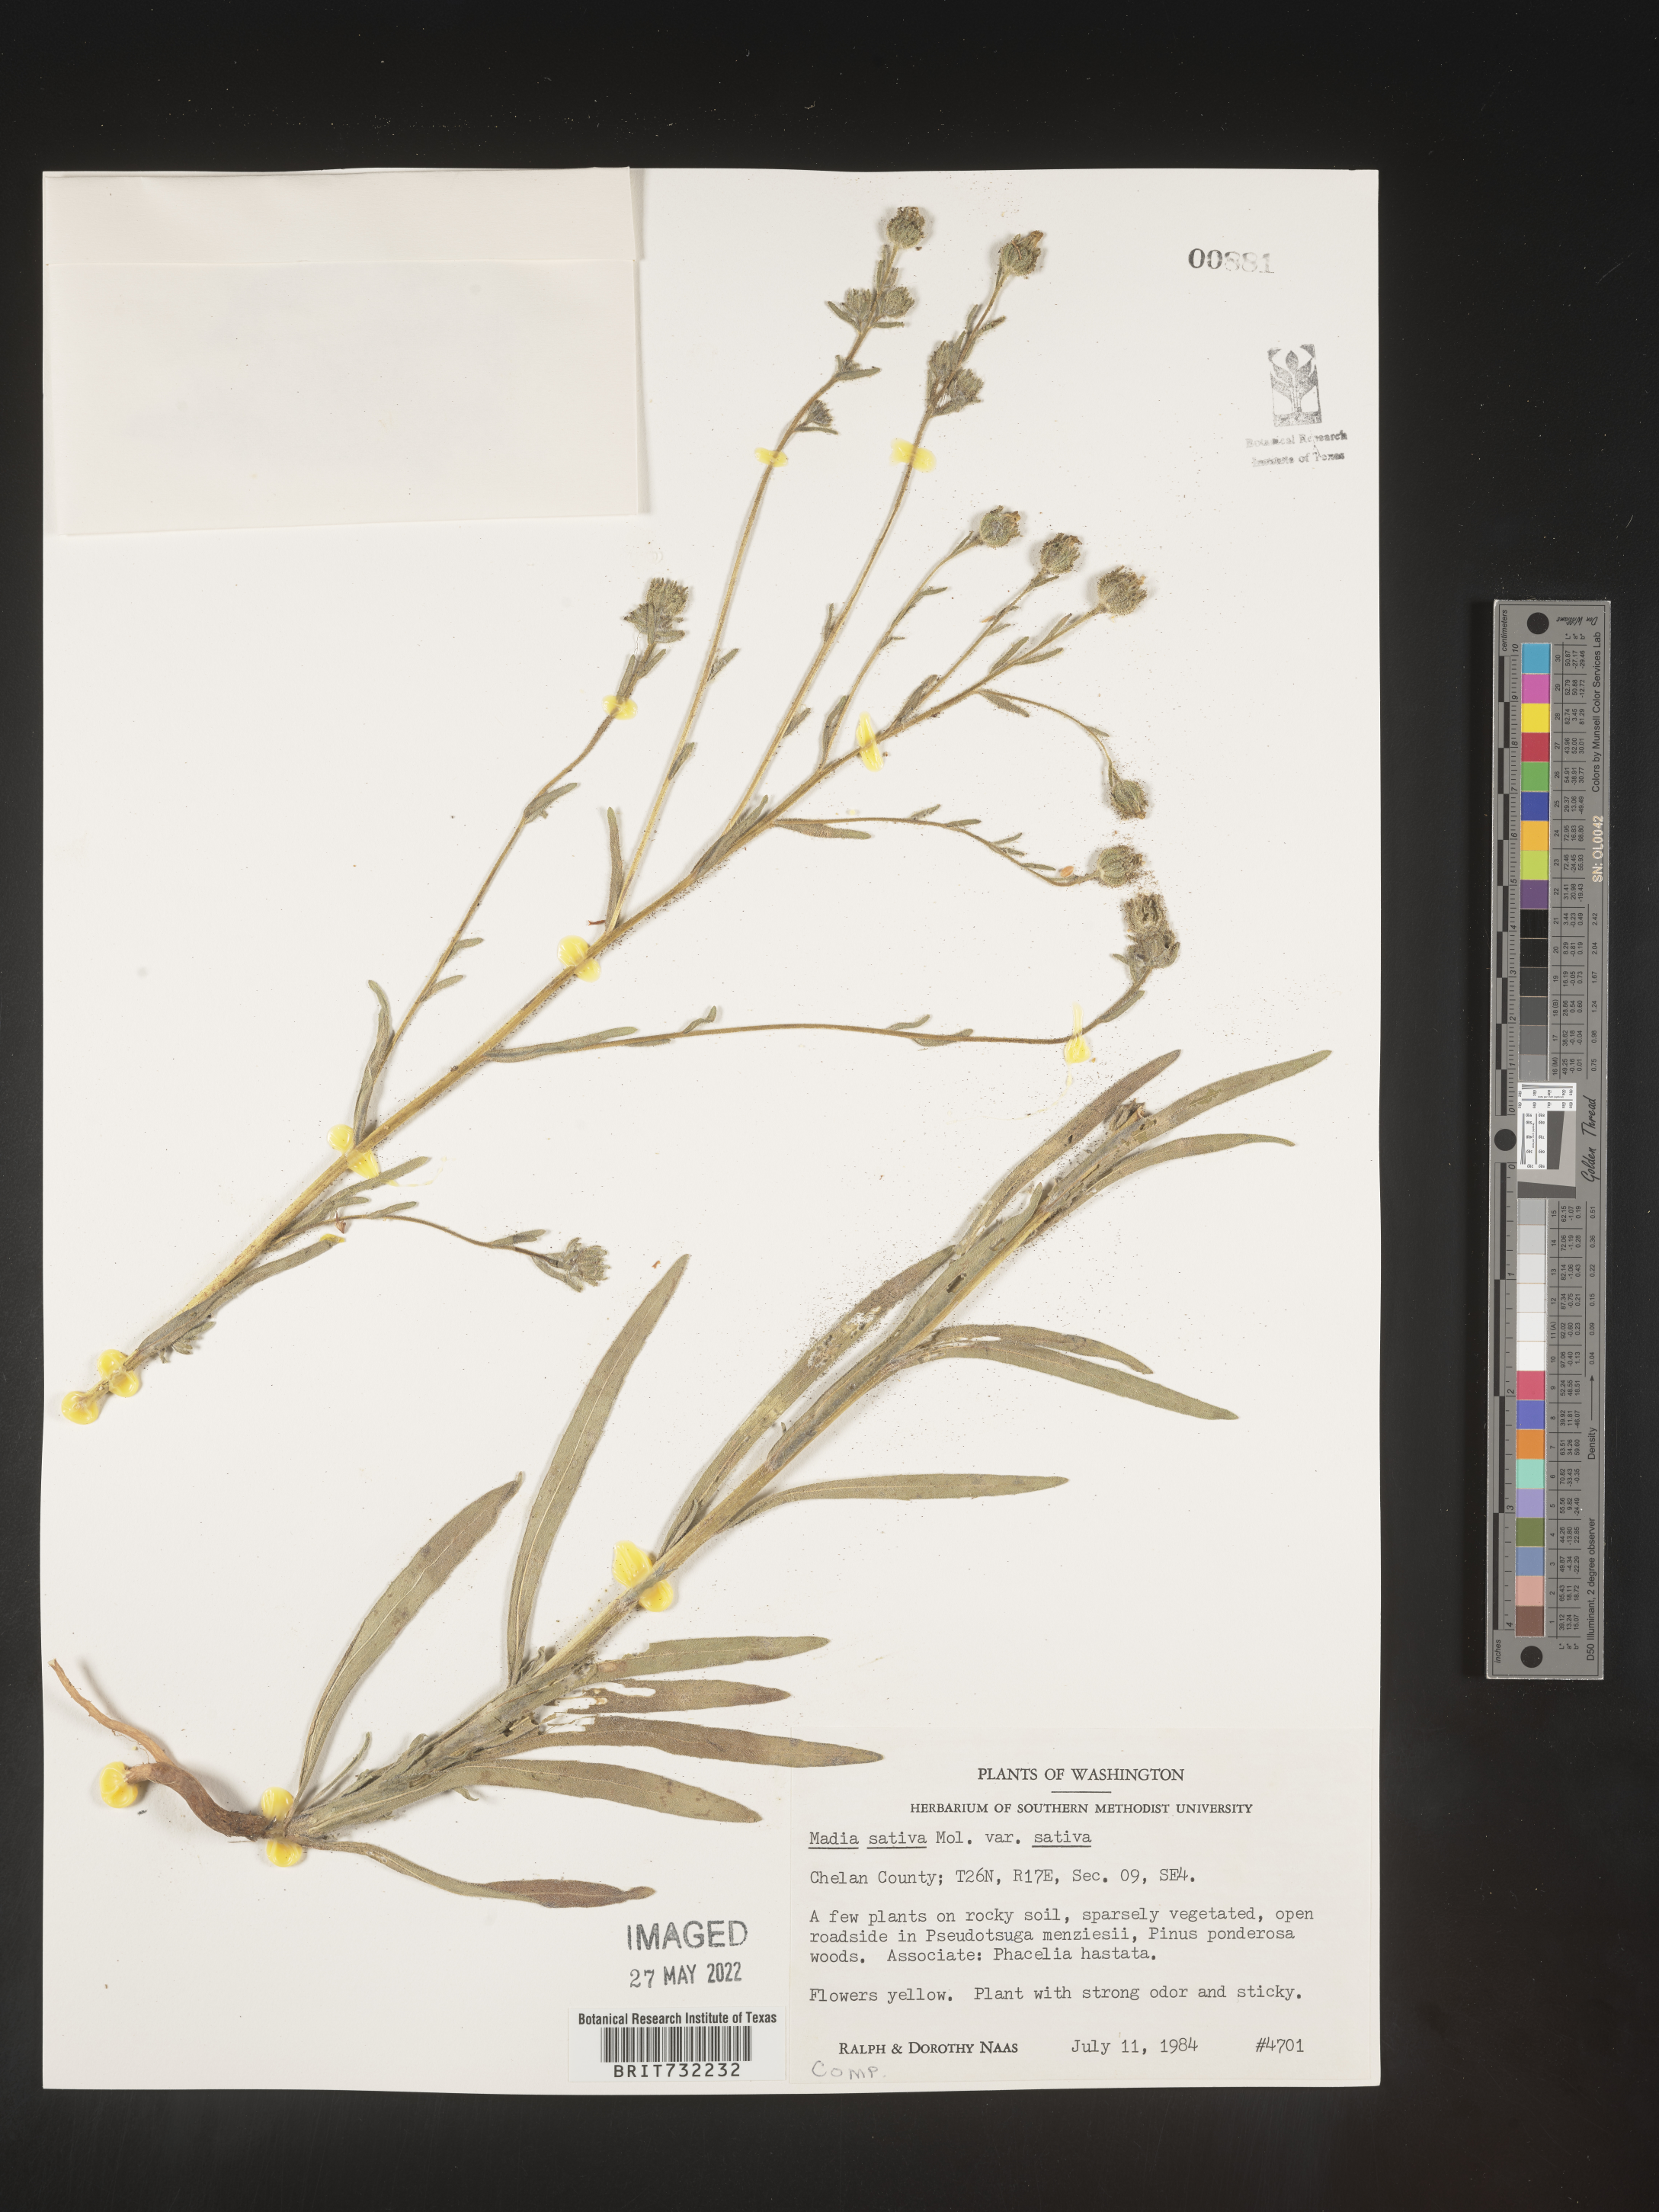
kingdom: Plantae
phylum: Tracheophyta
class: Magnoliopsida
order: Asterales
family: Asteraceae
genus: Madia
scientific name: Madia
